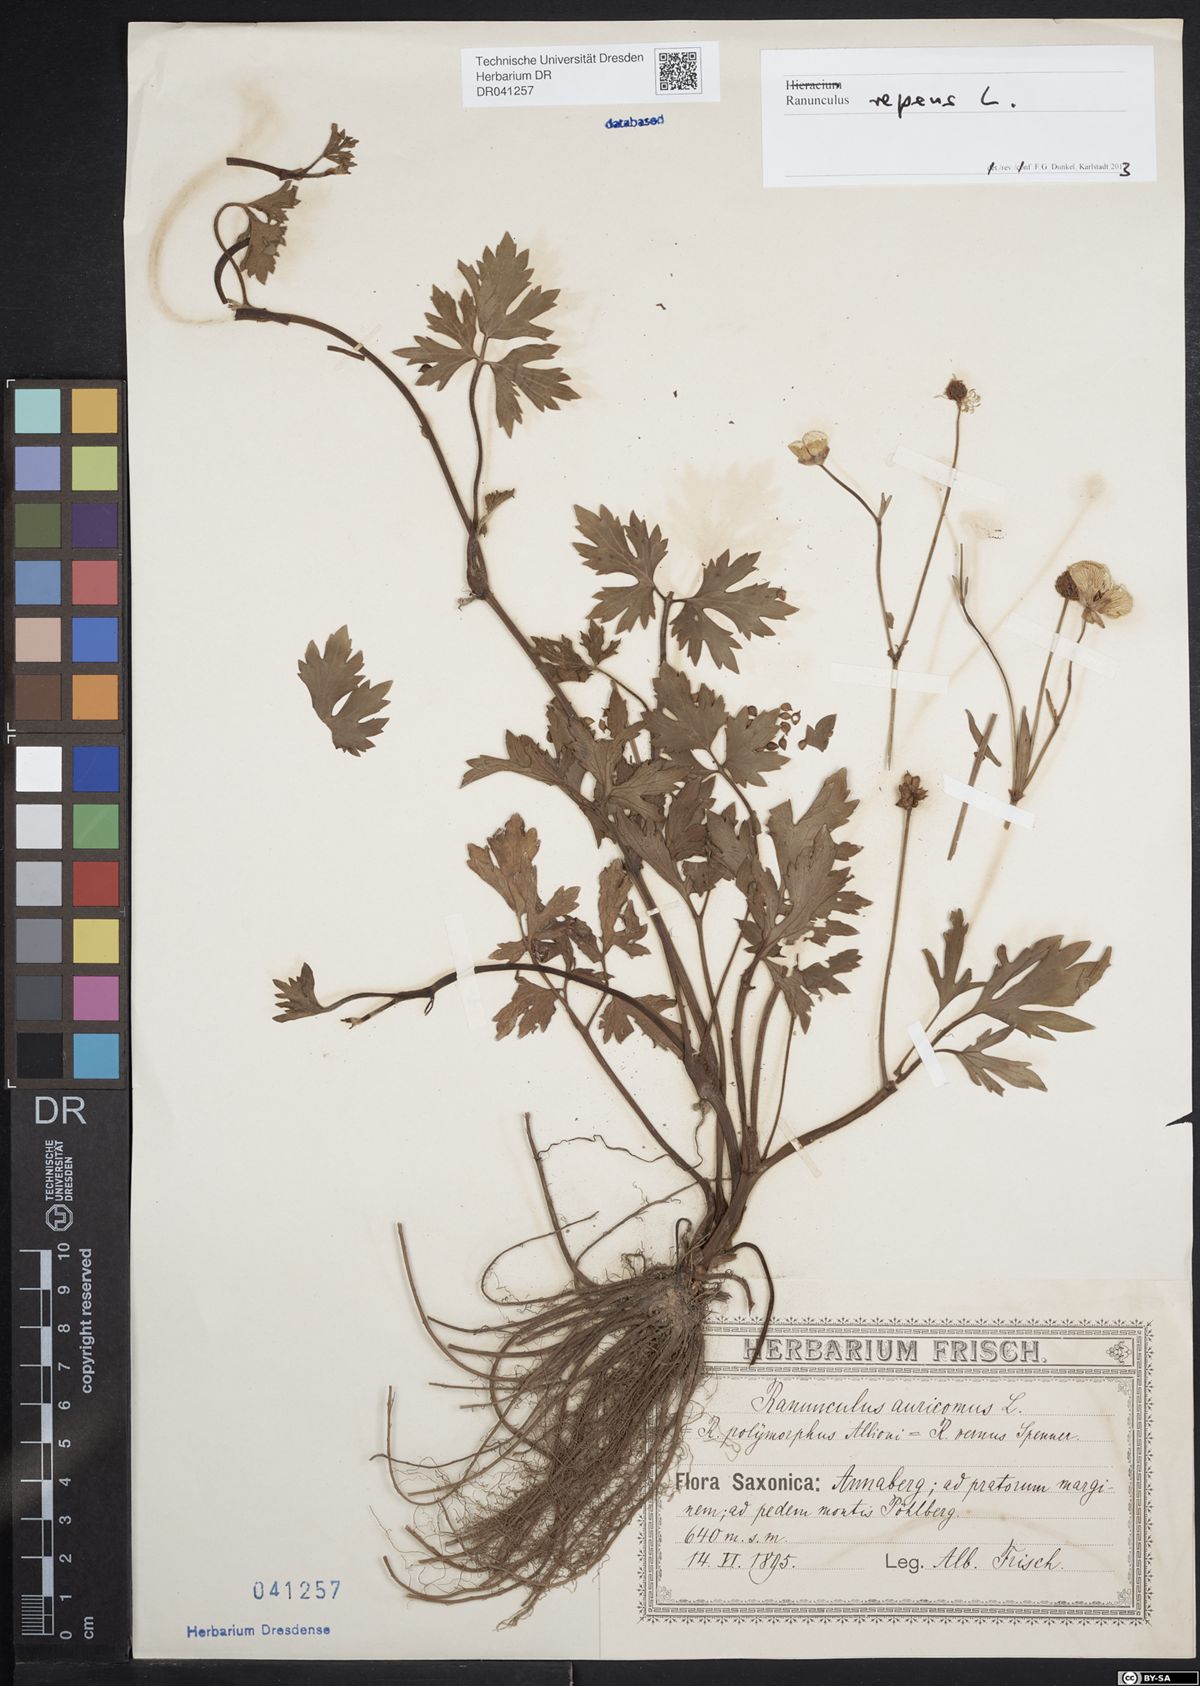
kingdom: Plantae
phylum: Tracheophyta
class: Magnoliopsida
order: Ranunculales
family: Ranunculaceae
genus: Ranunculus
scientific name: Ranunculus repens
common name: Creeping buttercup
